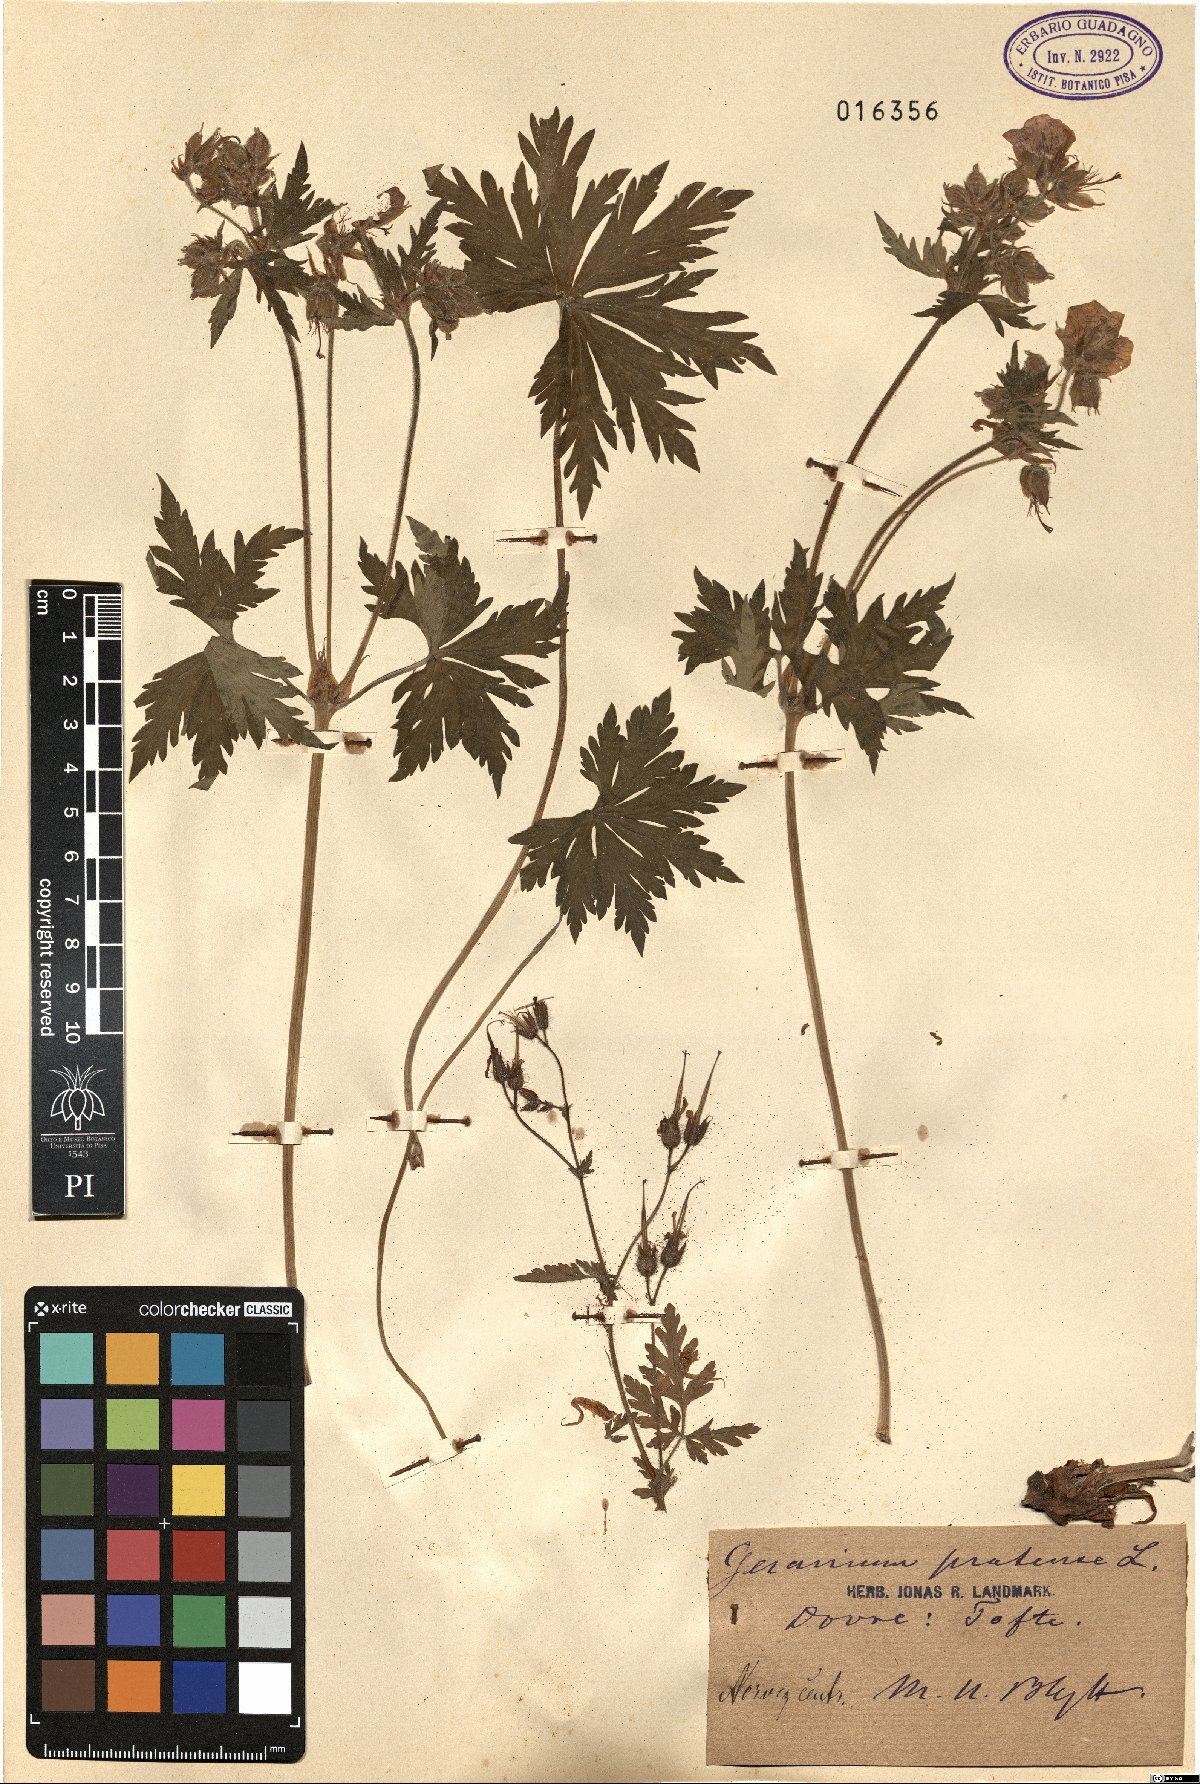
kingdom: Plantae
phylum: Tracheophyta
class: Magnoliopsida
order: Geraniales
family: Geraniaceae
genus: Geranium
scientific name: Geranium pratense
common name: Meadow crane's-bill
